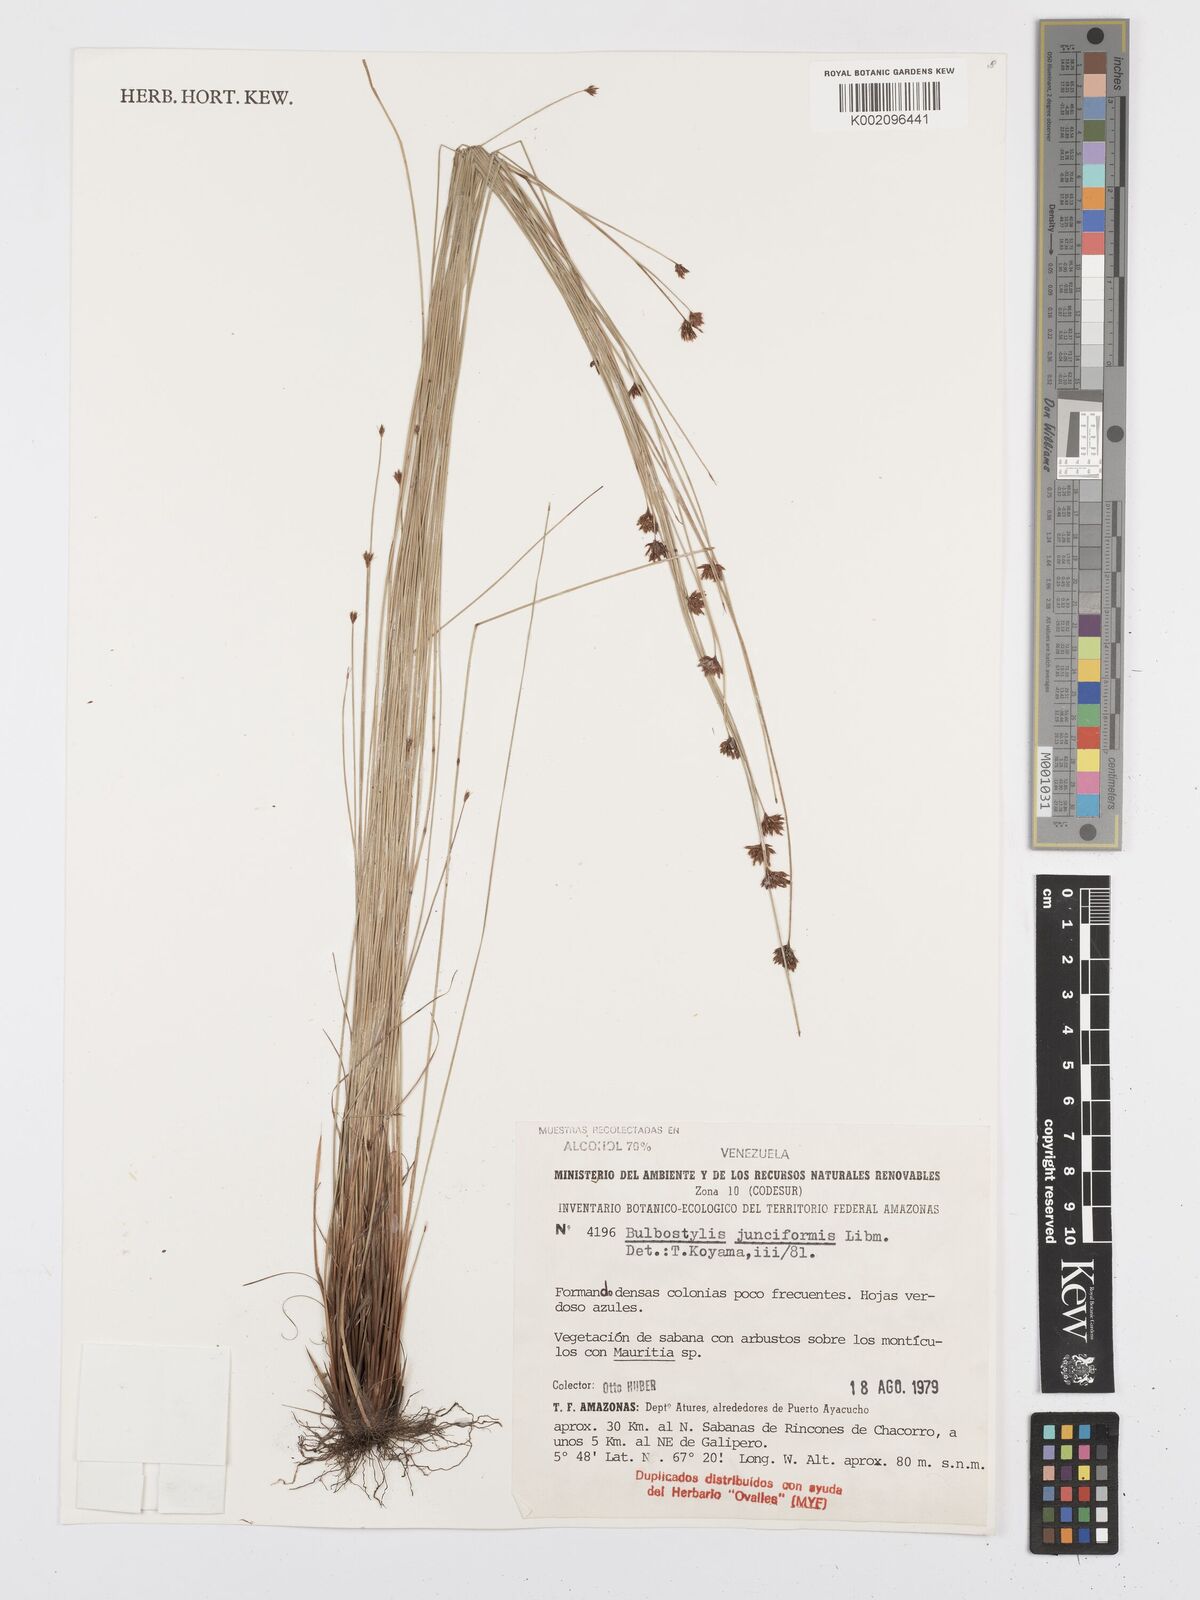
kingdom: Plantae
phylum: Tracheophyta
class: Liliopsida
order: Poales
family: Cyperaceae
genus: Bulbostylis
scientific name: Bulbostylis junciformis
